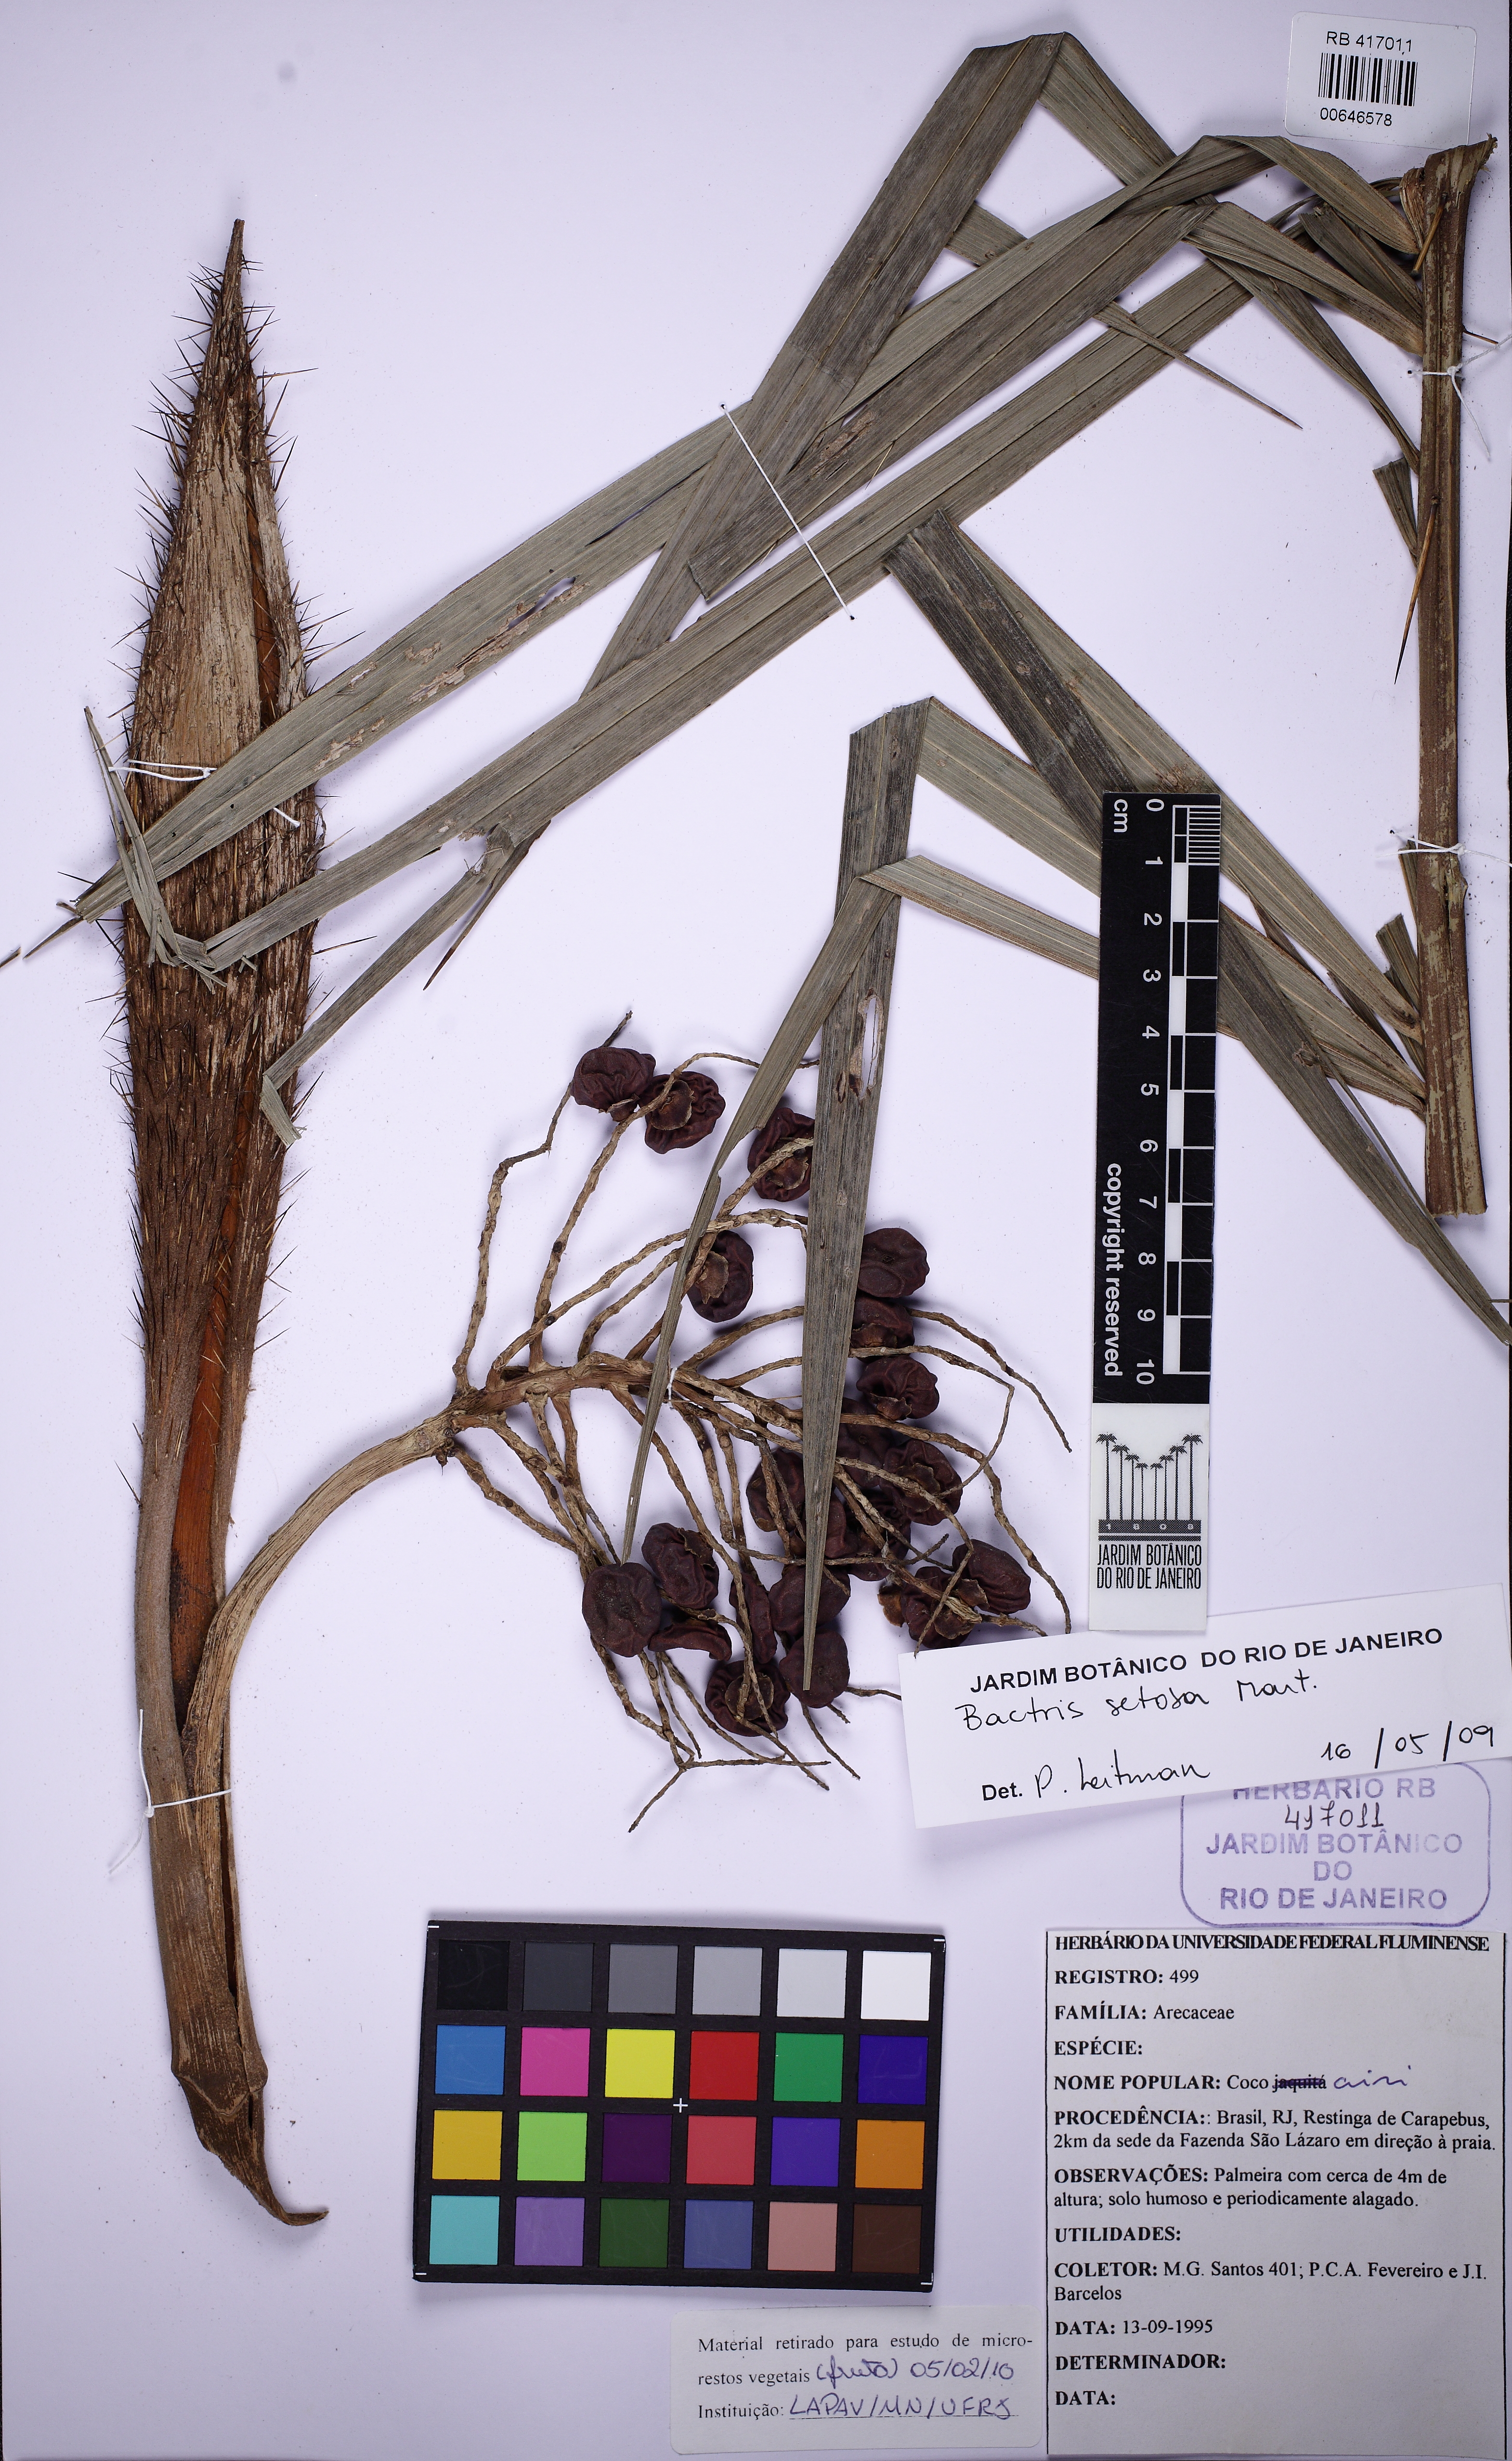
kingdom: Plantae
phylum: Tracheophyta
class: Liliopsida
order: Arecales
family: Arecaceae
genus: Bactris
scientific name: Bactris setosa
